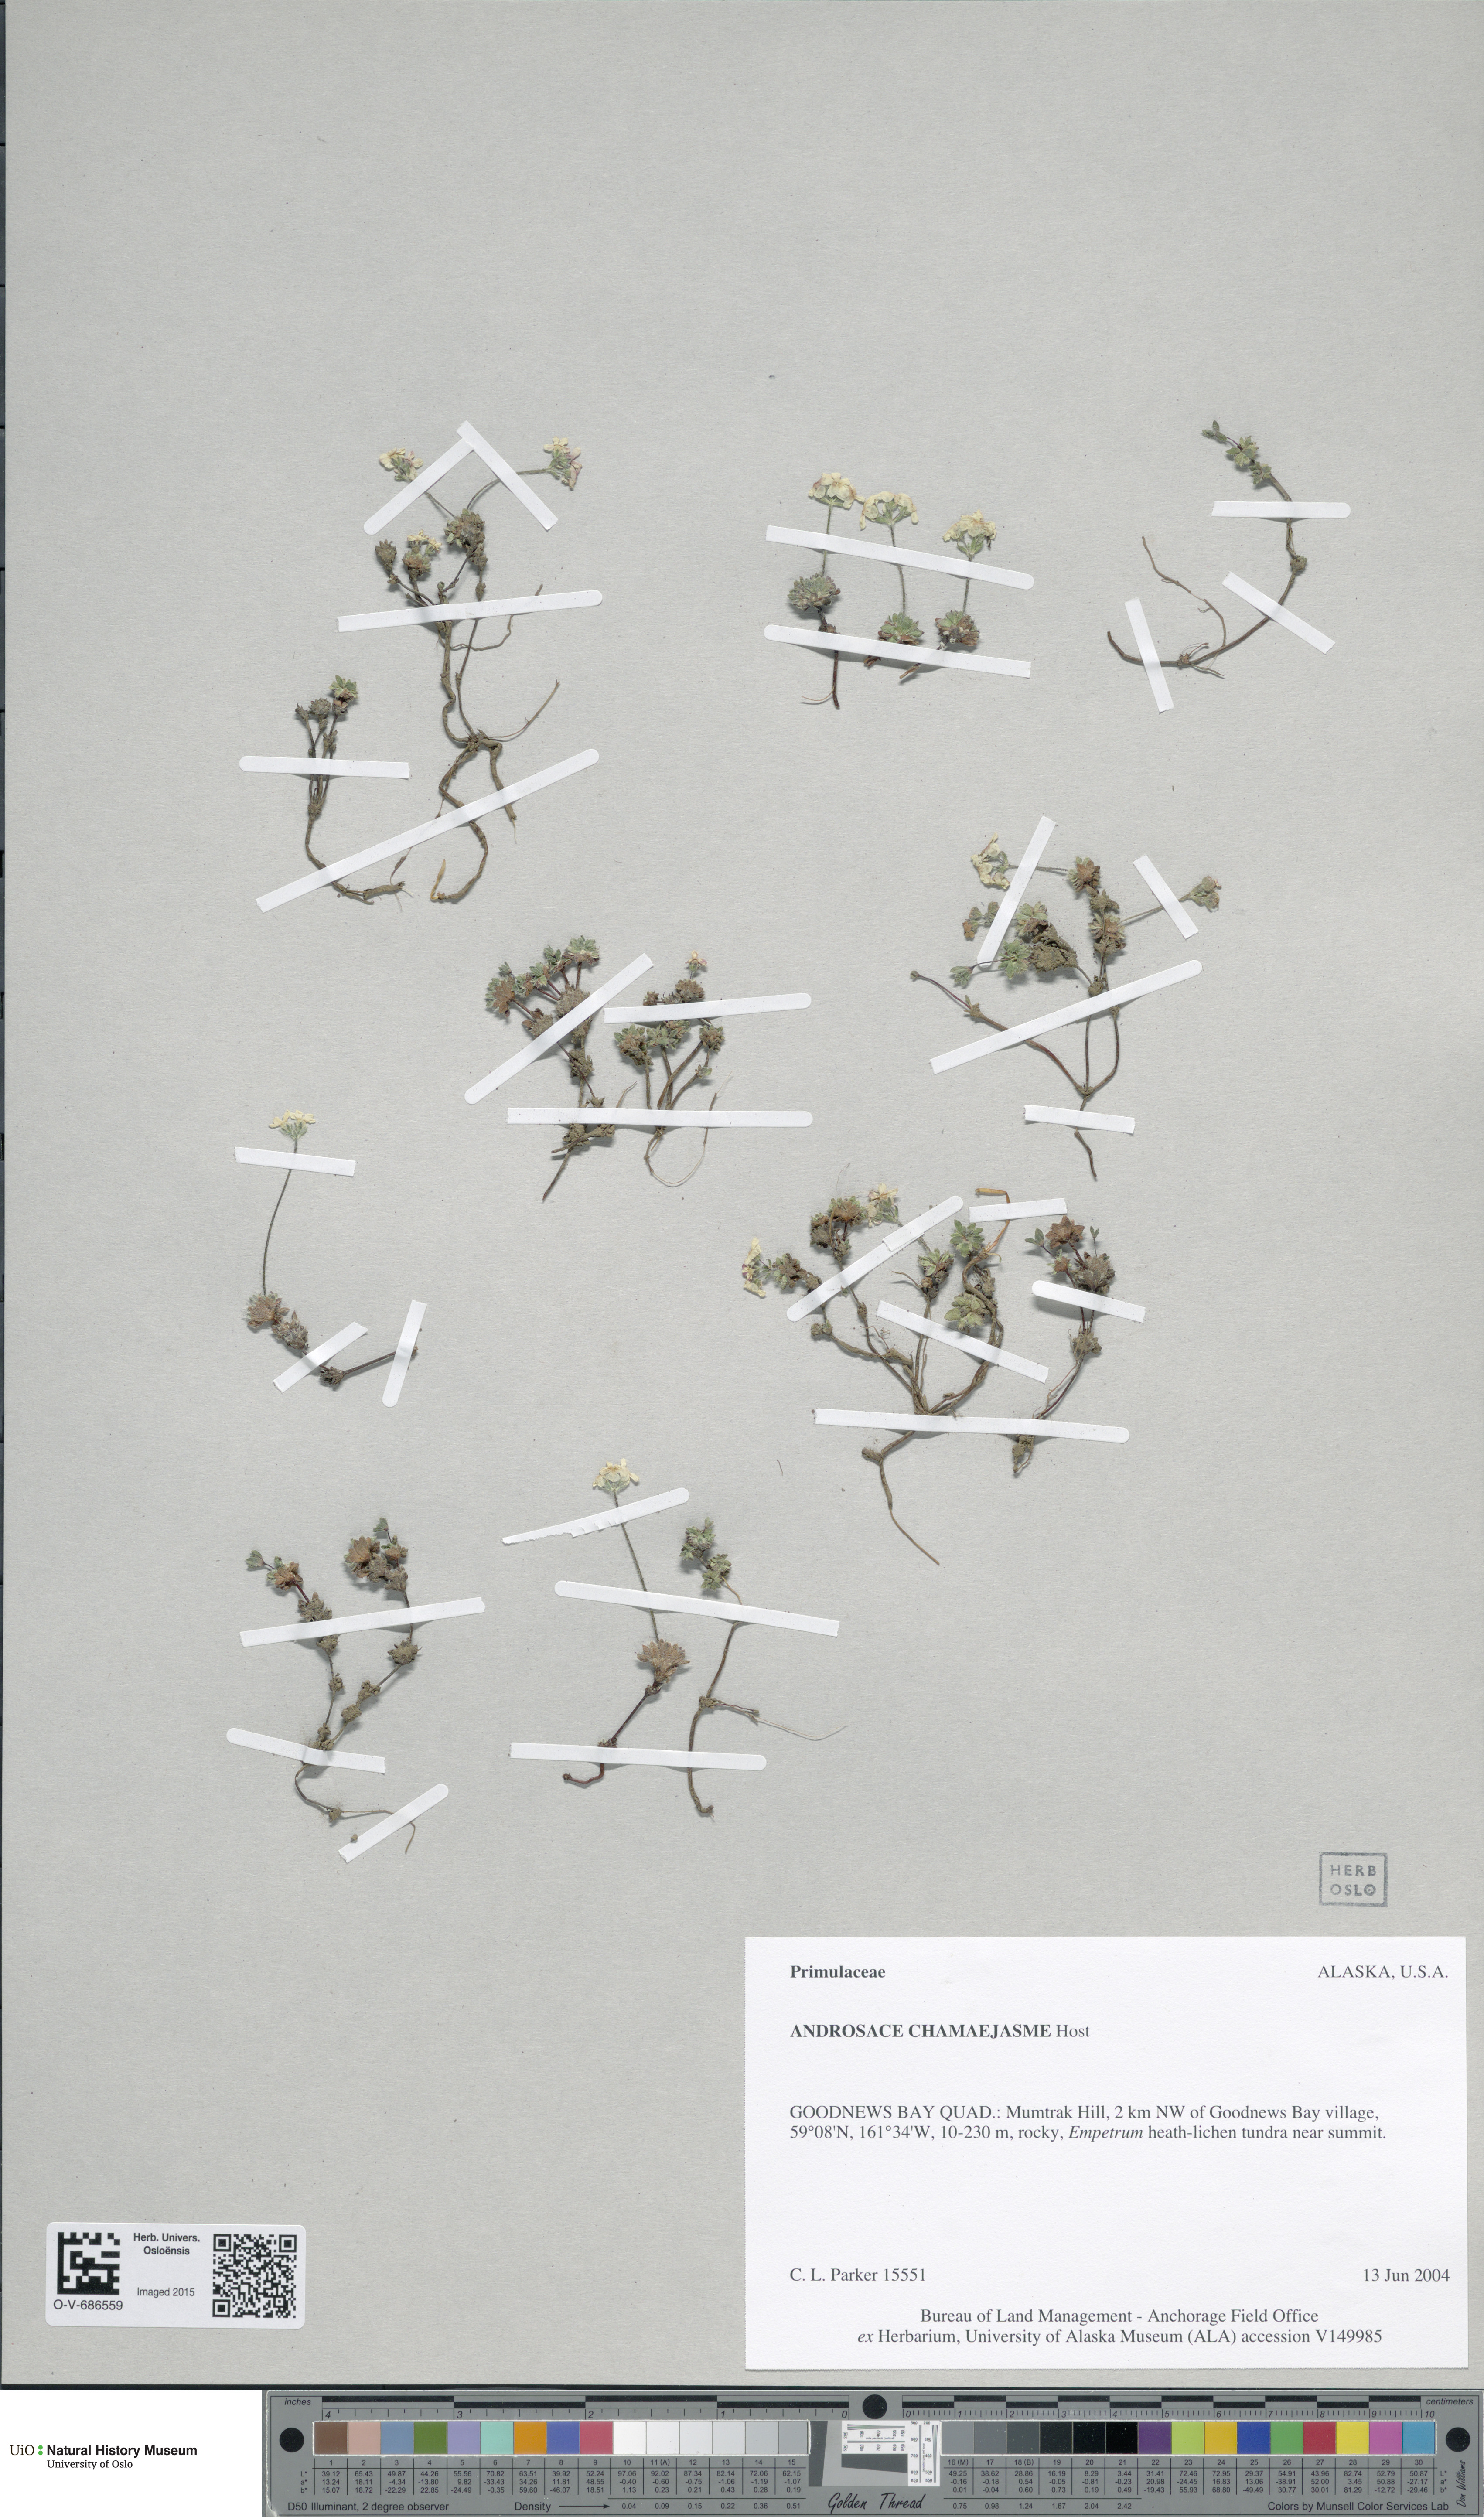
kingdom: Plantae
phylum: Tracheophyta
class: Magnoliopsida
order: Ericales
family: Primulaceae
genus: Androsace
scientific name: Androsace chamaejasme
